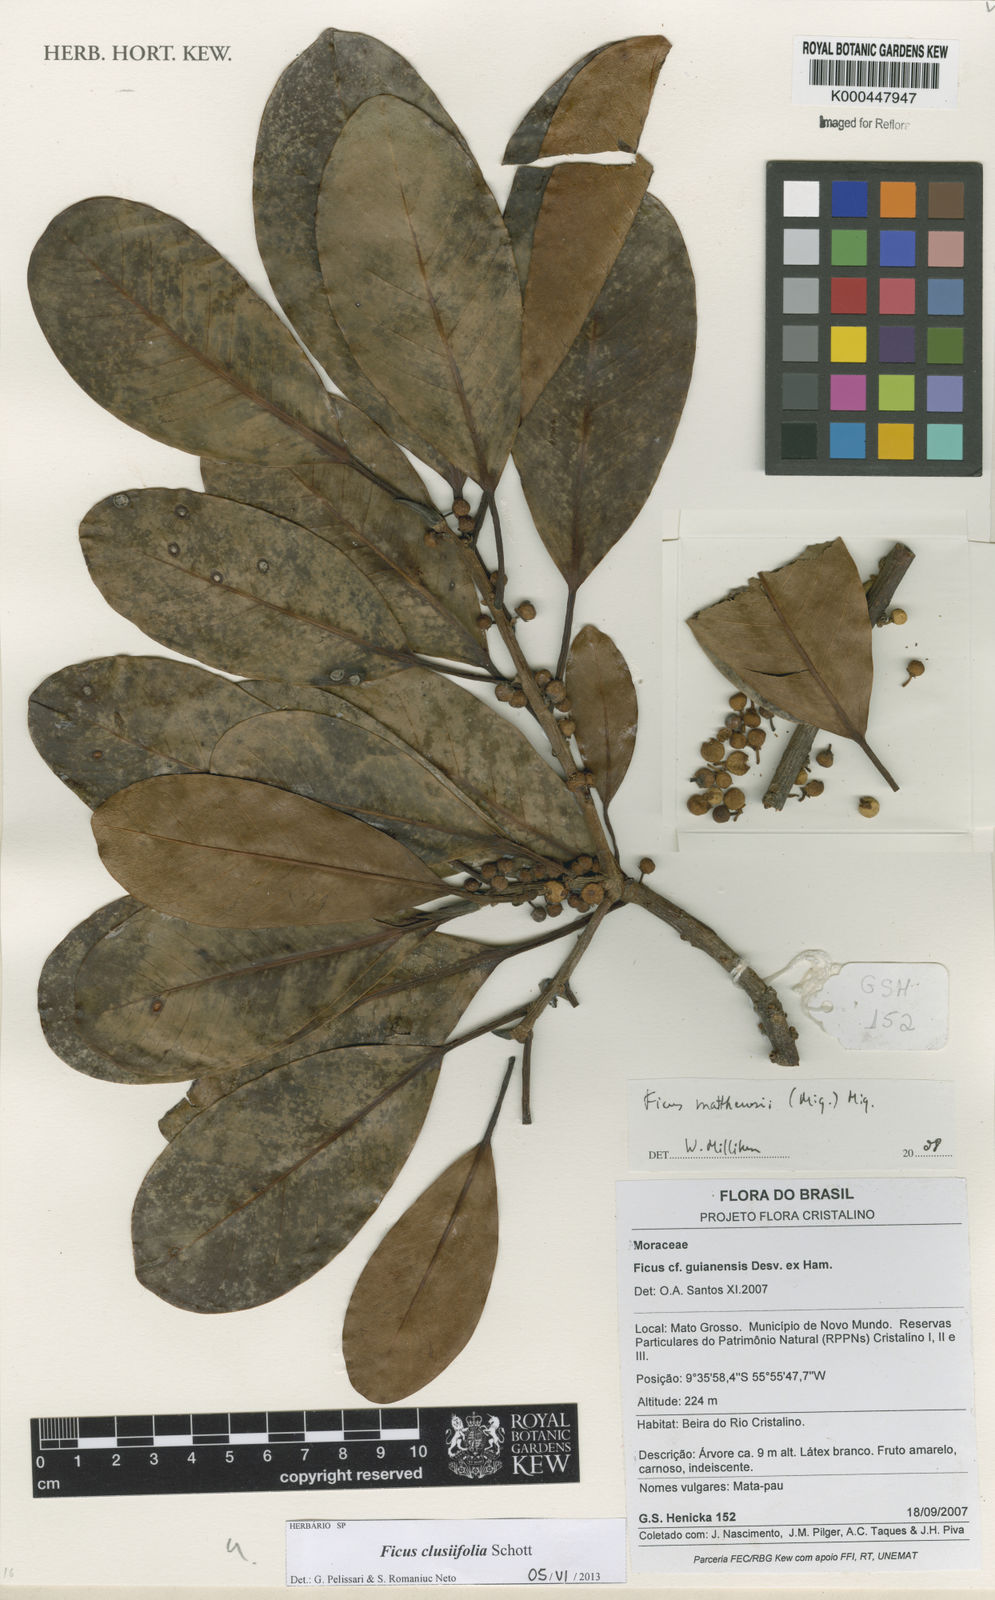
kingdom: Plantae
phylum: Tracheophyta
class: Magnoliopsida
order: Rosales
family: Moraceae
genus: Ficus
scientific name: Ficus mathewsii
